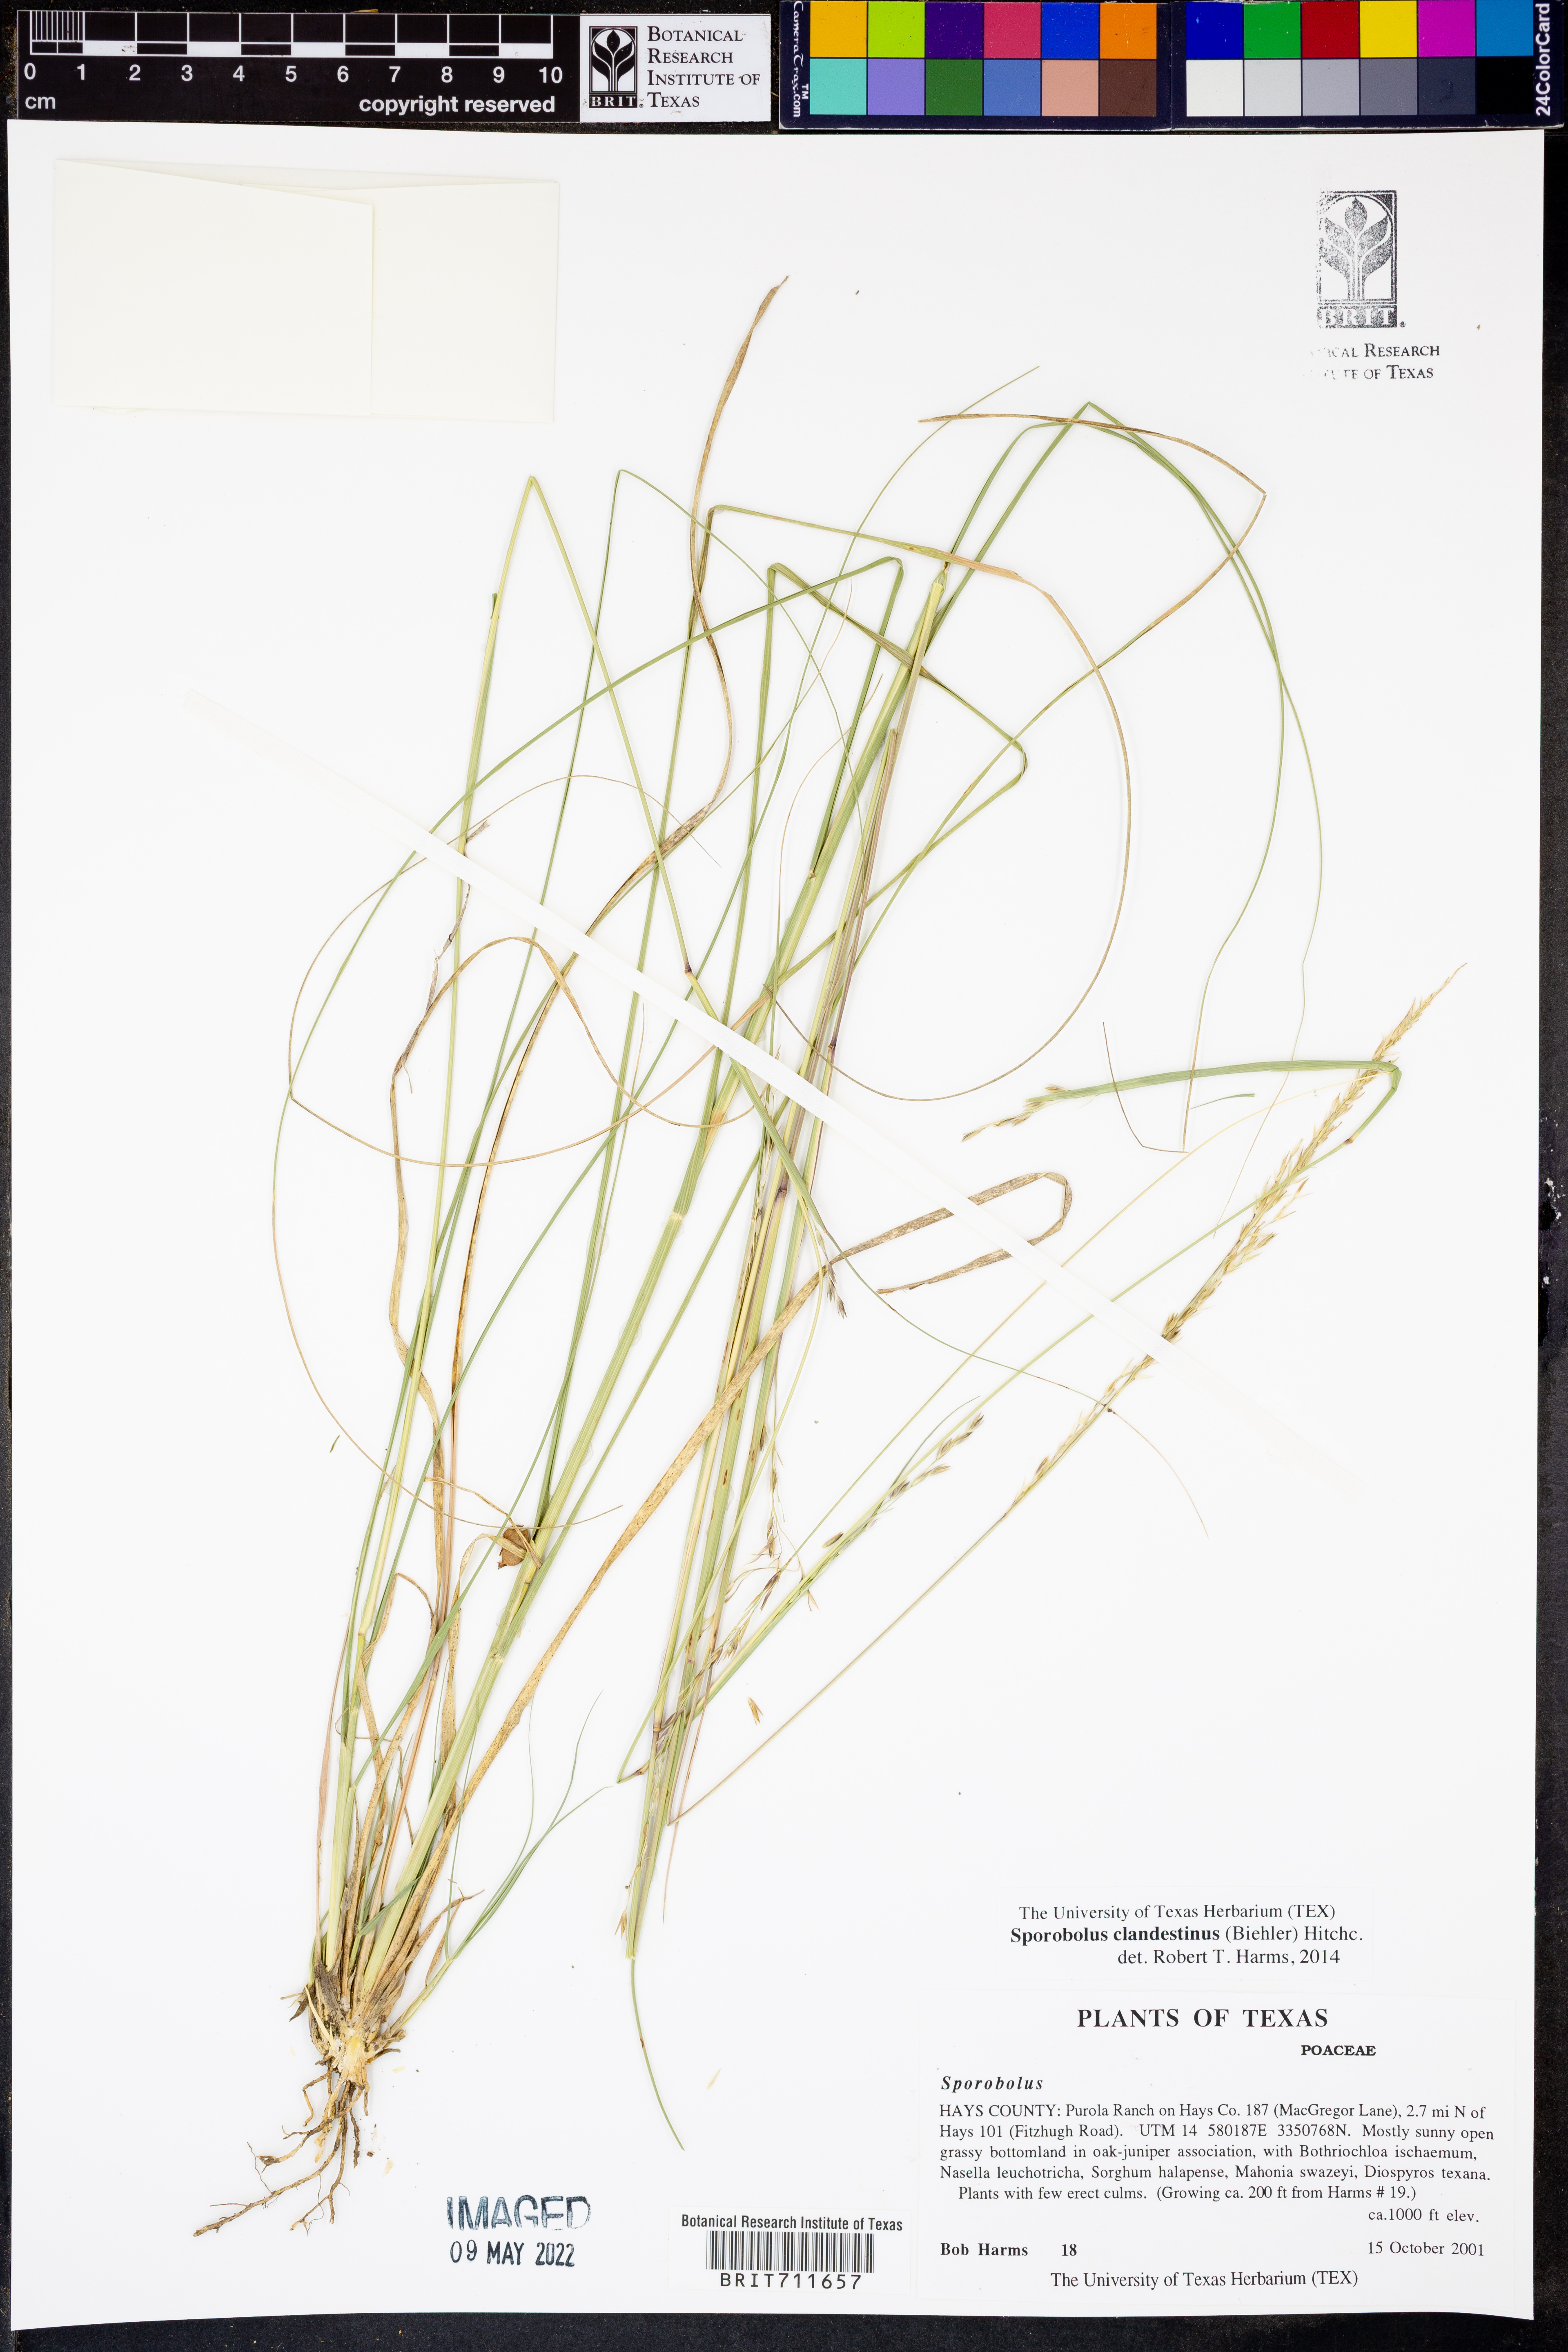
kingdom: Plantae
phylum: Tracheophyta
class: Liliopsida
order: Poales
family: Poaceae
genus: Sporobolus
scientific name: Sporobolus clandestinus
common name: Hidden dropseed
